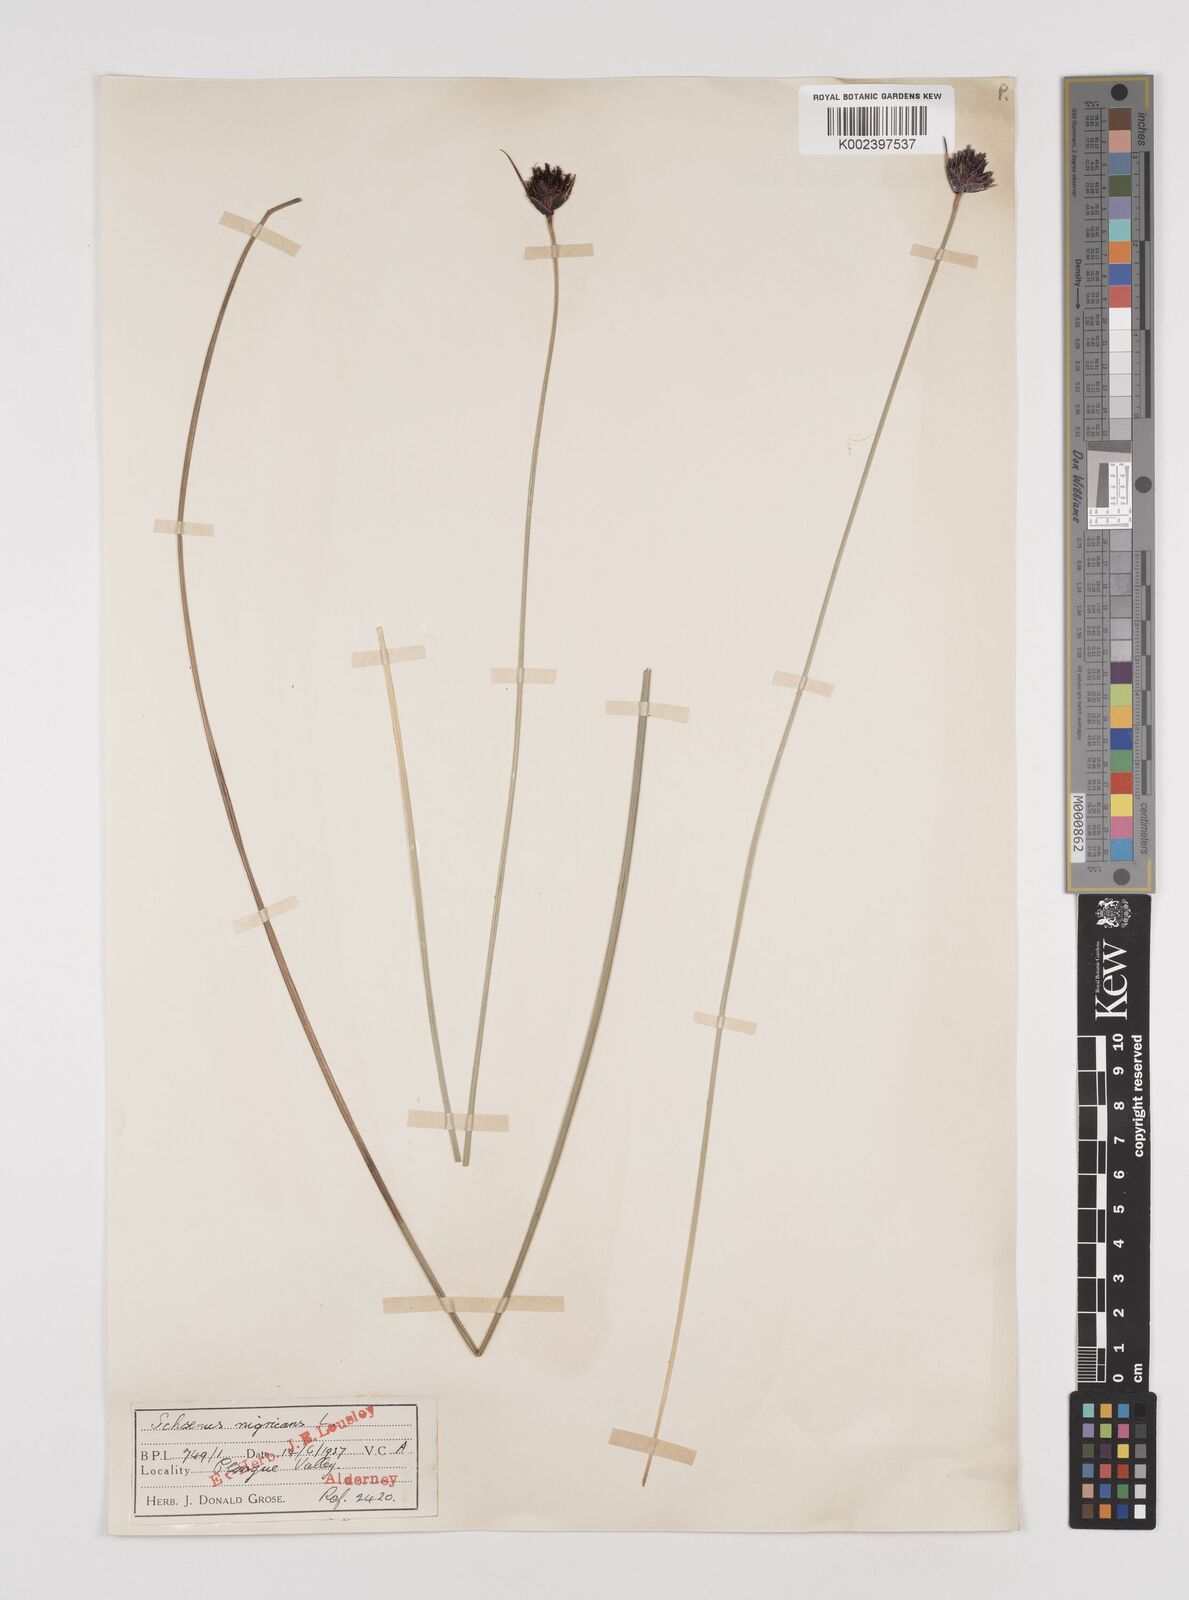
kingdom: Plantae
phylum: Tracheophyta
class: Liliopsida
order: Poales
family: Cyperaceae
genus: Schoenus
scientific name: Schoenus nigricans
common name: Black bog-rush
